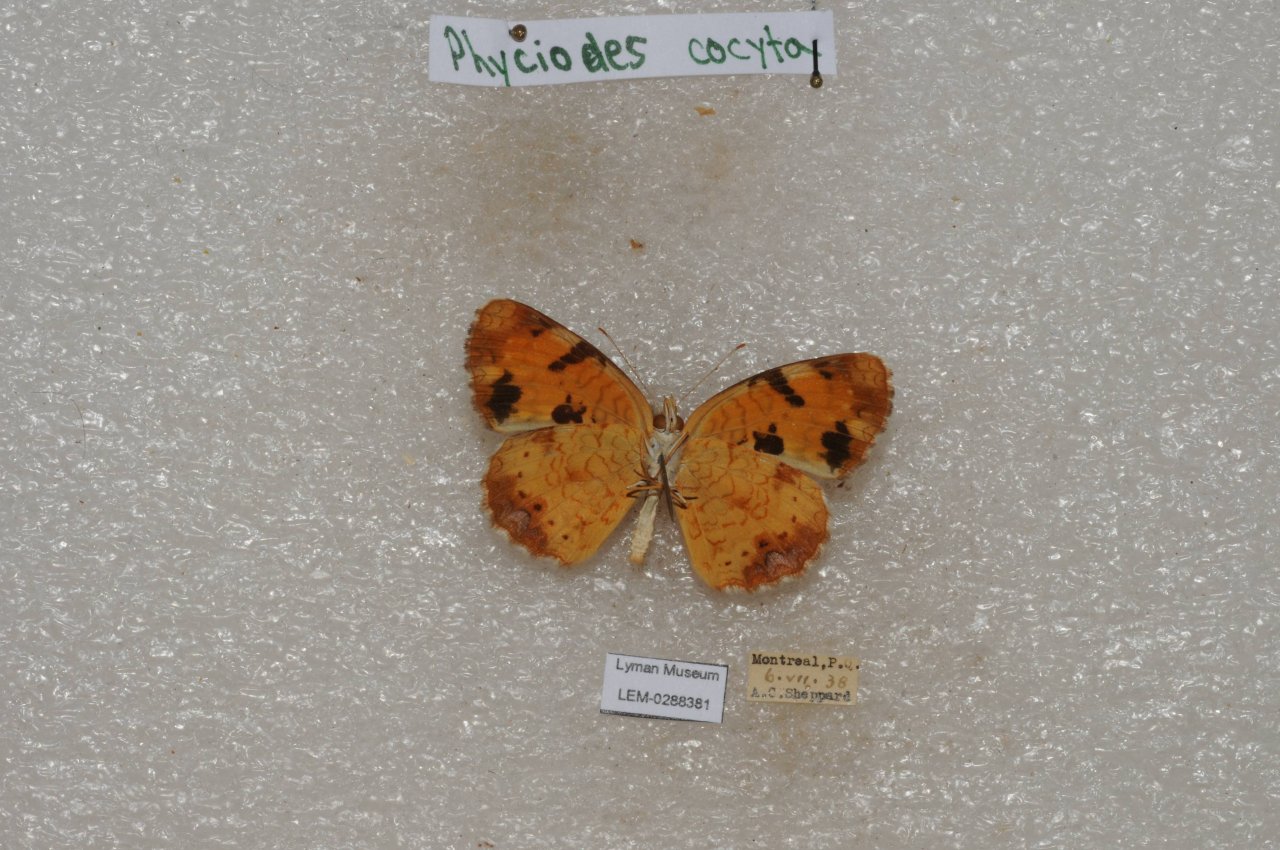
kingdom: Animalia
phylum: Arthropoda
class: Insecta
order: Lepidoptera
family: Nymphalidae
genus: Phyciodes
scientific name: Phyciodes tharos
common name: Northern Crescent
